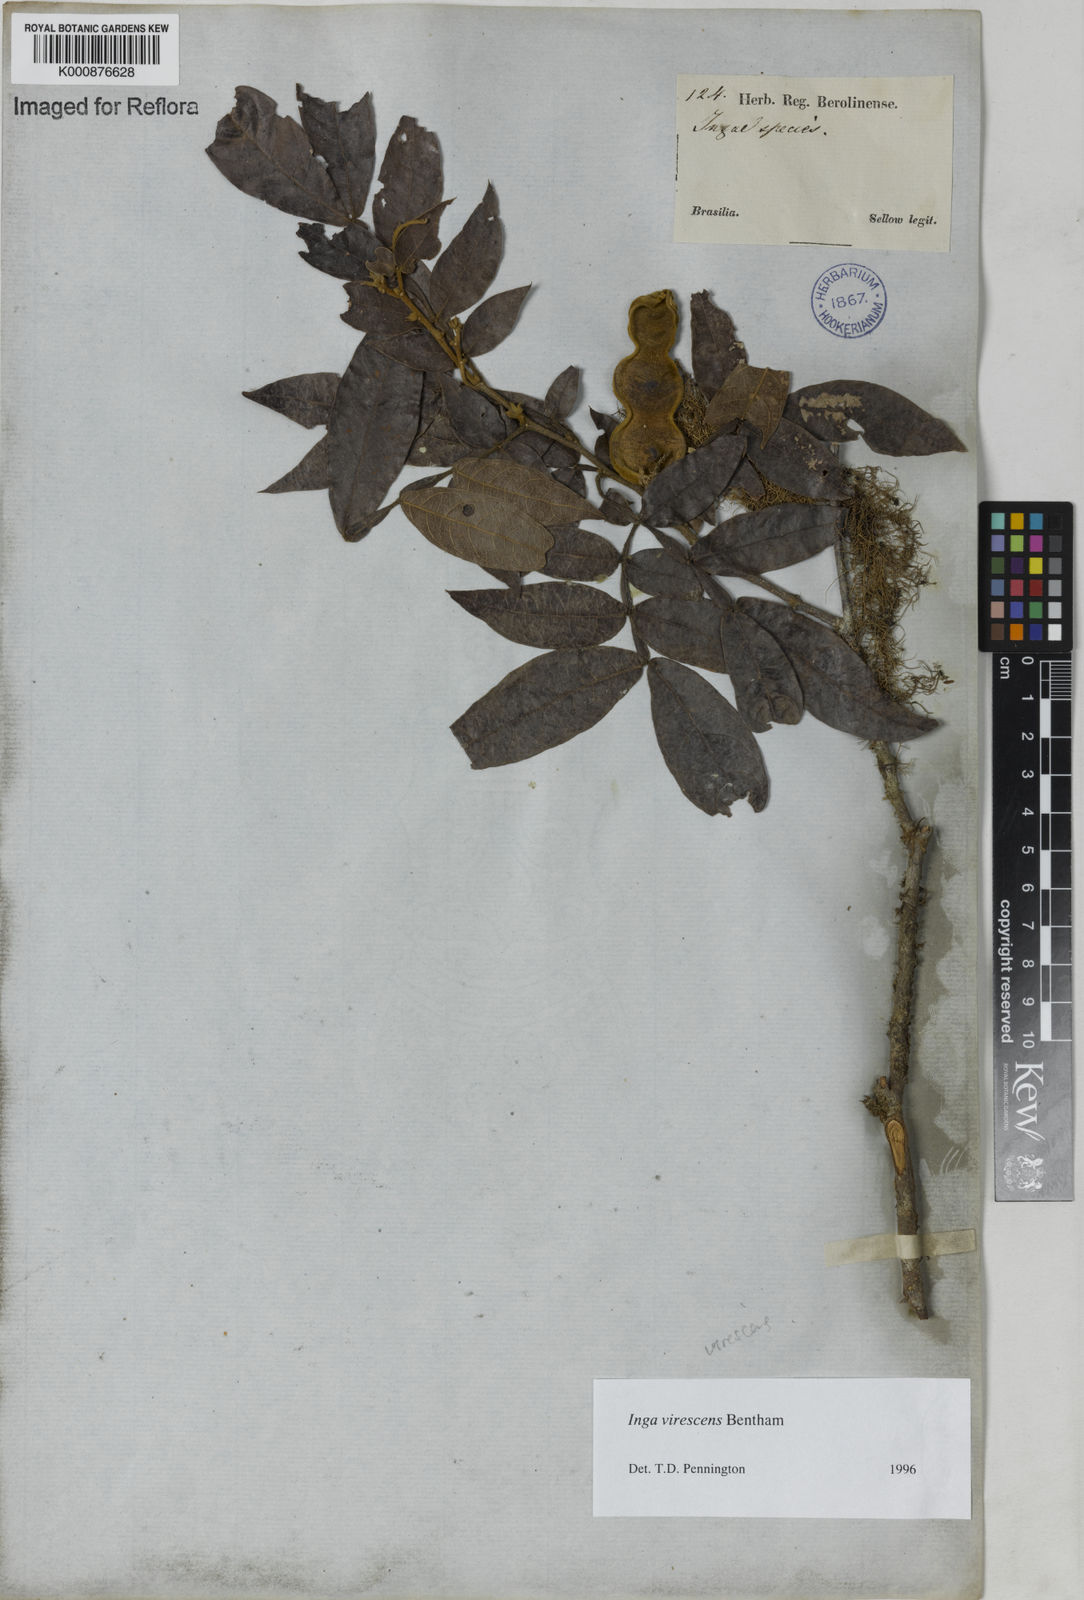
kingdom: Plantae
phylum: Tracheophyta
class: Magnoliopsida
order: Fabales
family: Fabaceae
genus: Inga
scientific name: Inga virescens
